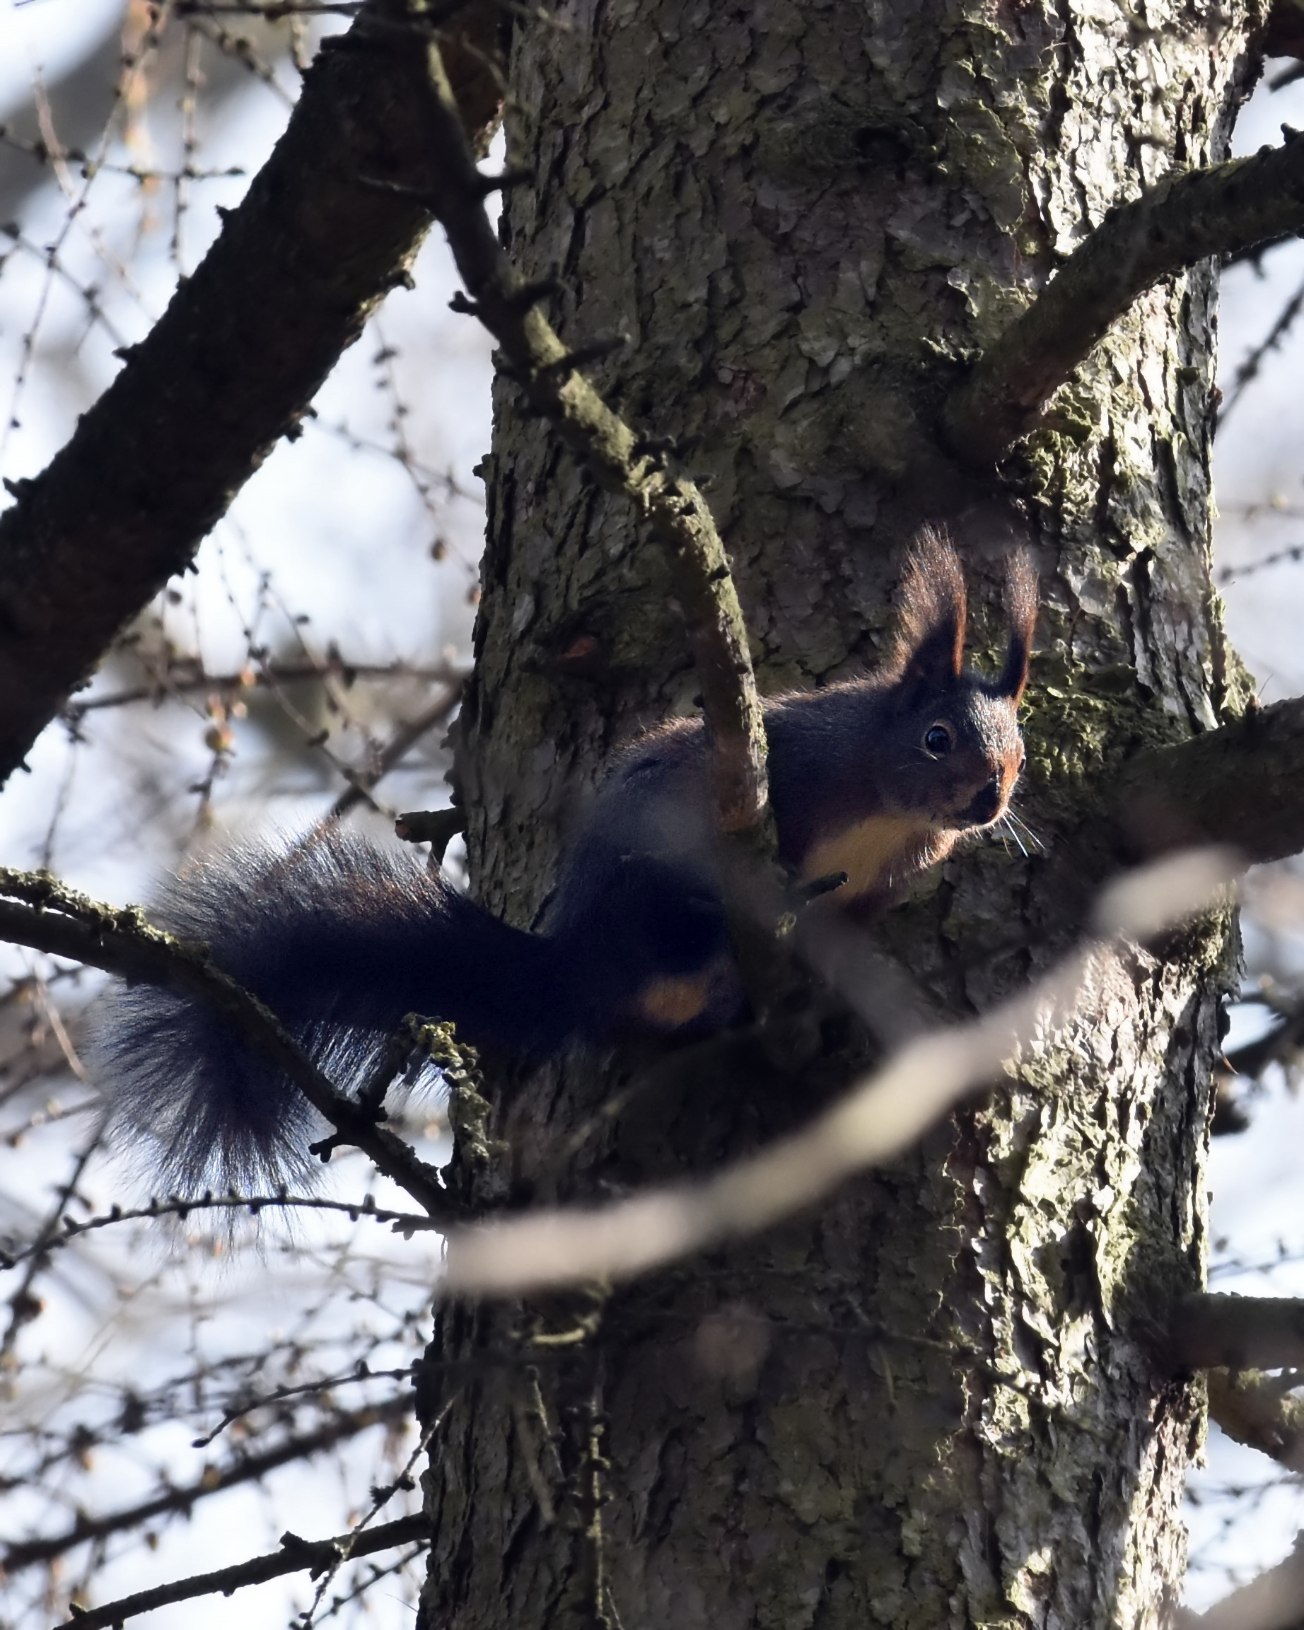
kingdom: Animalia
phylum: Chordata
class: Mammalia
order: Rodentia
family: Sciuridae
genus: Sciurus
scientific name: Sciurus vulgaris
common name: Egern
